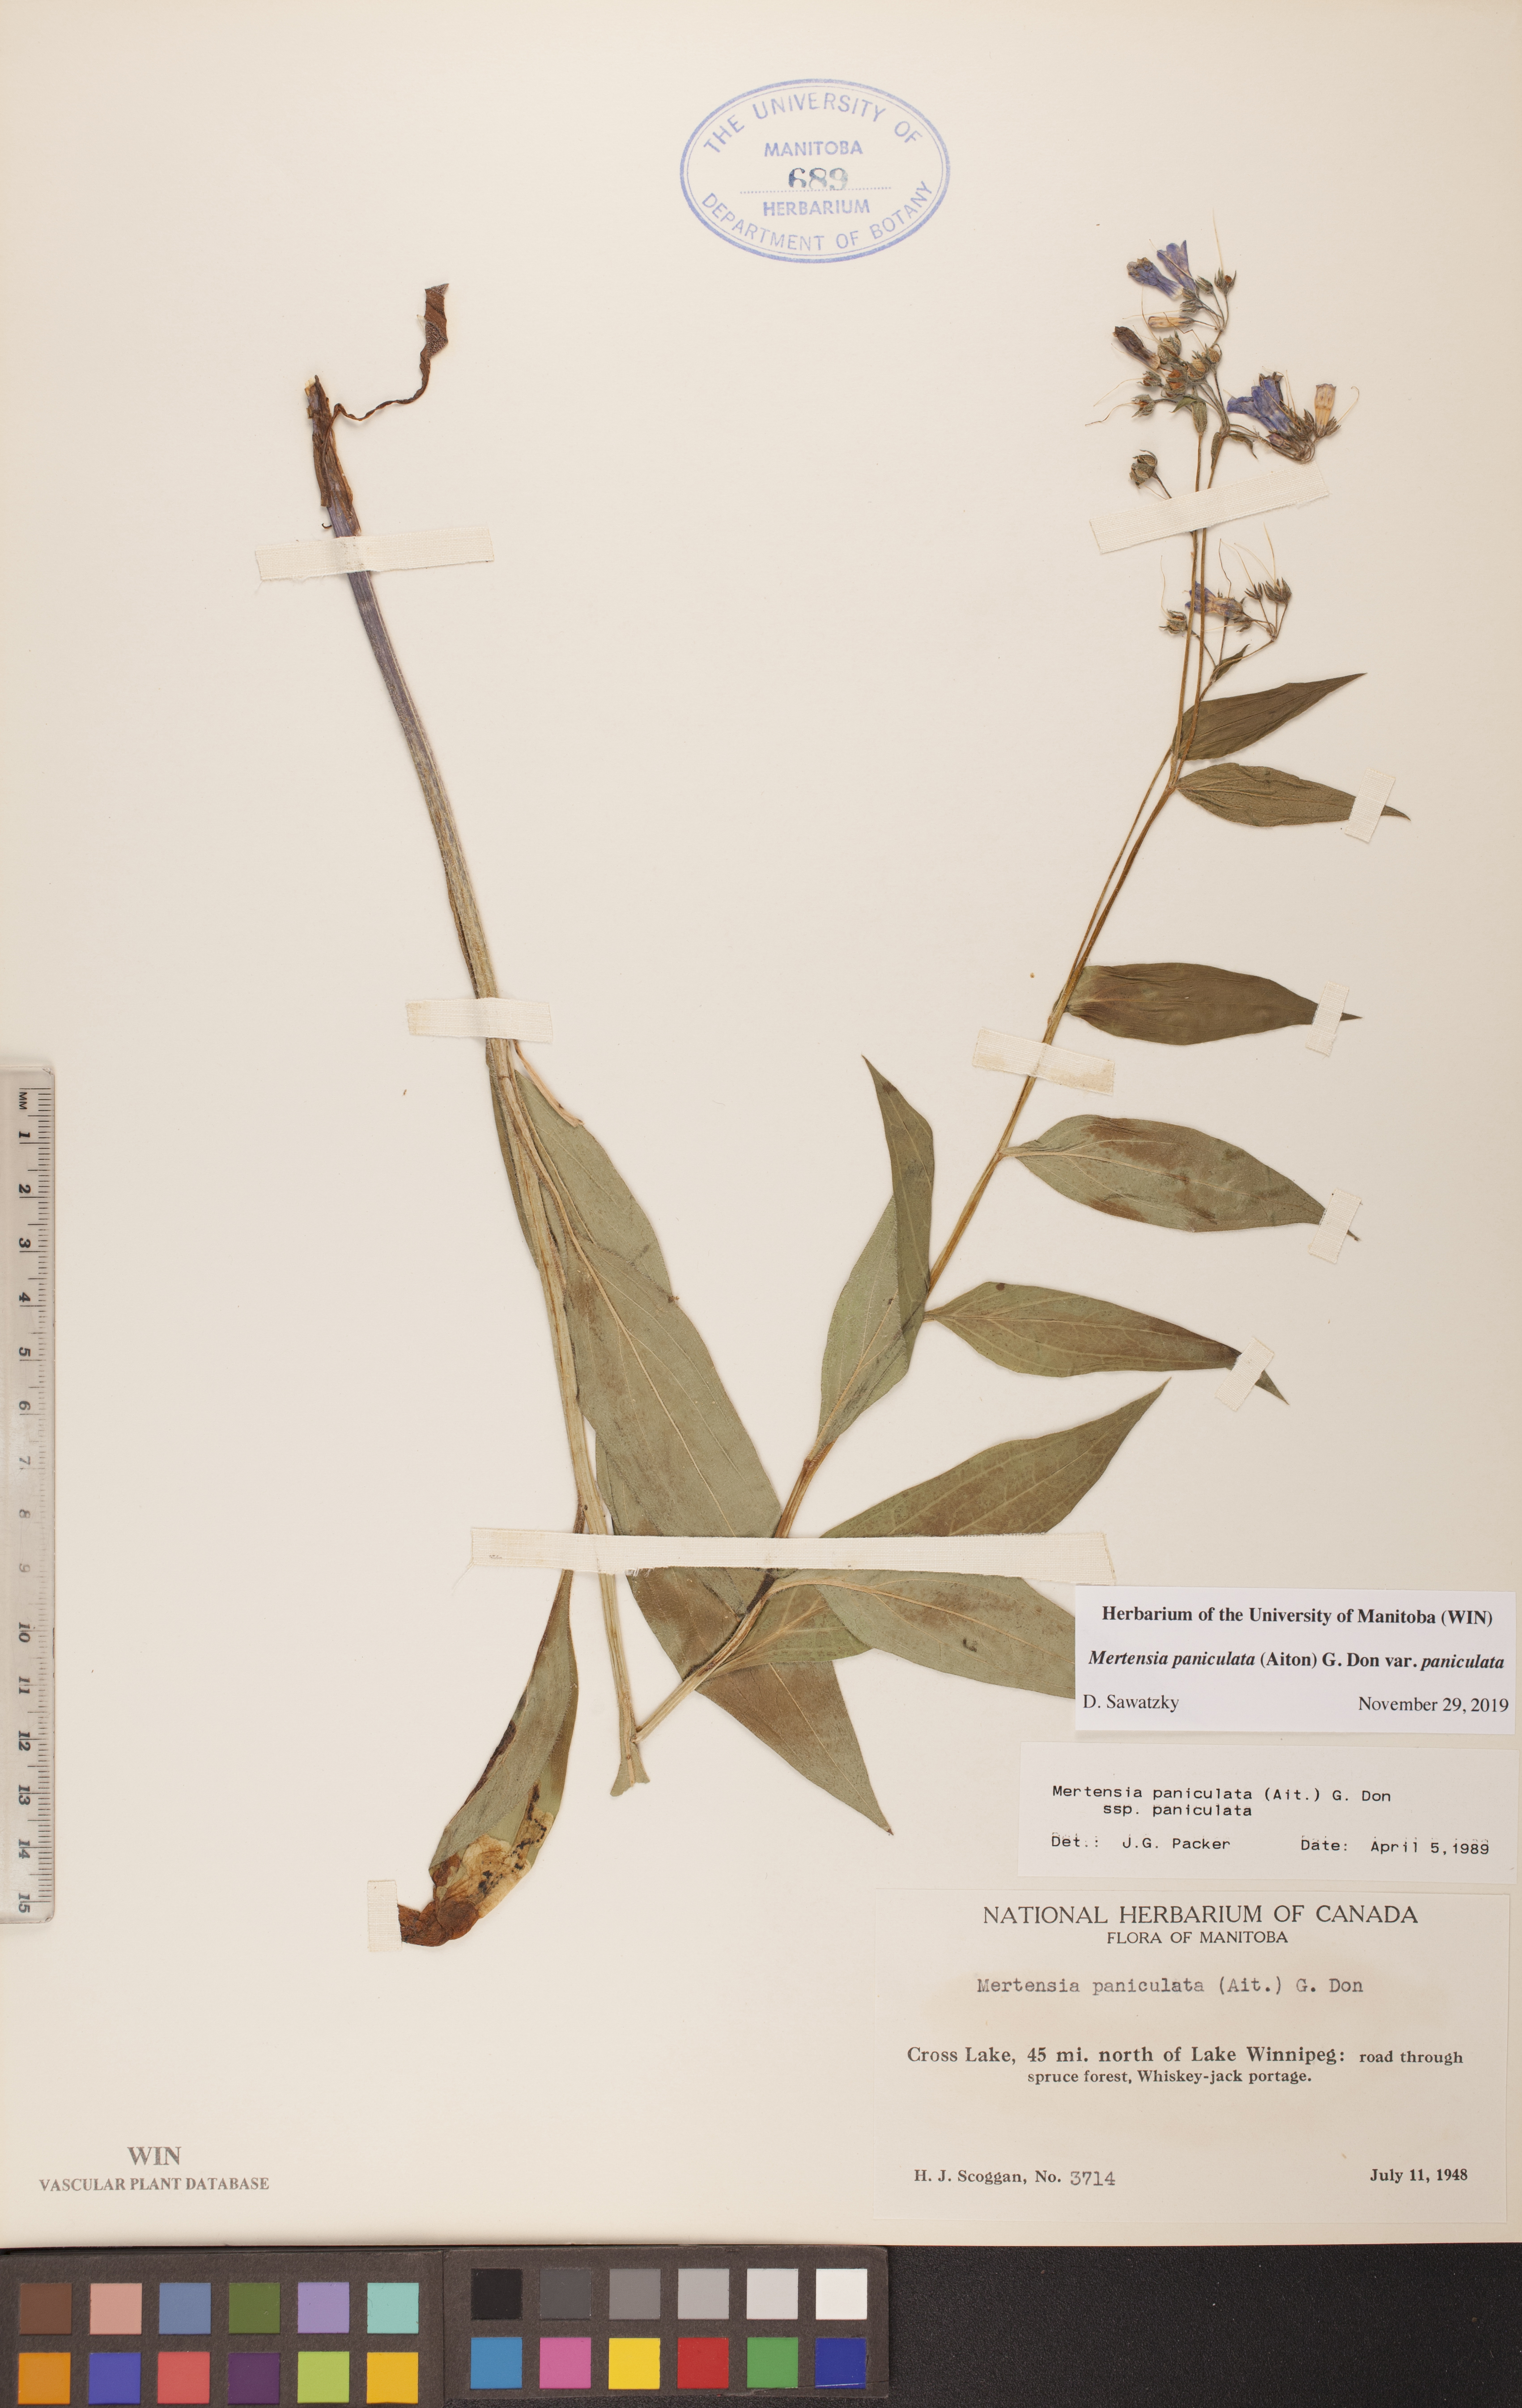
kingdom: Plantae
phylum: Tracheophyta
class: Magnoliopsida
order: Boraginales
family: Boraginaceae
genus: Mertensia
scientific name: Mertensia paniculata
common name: Panicled bluebells
